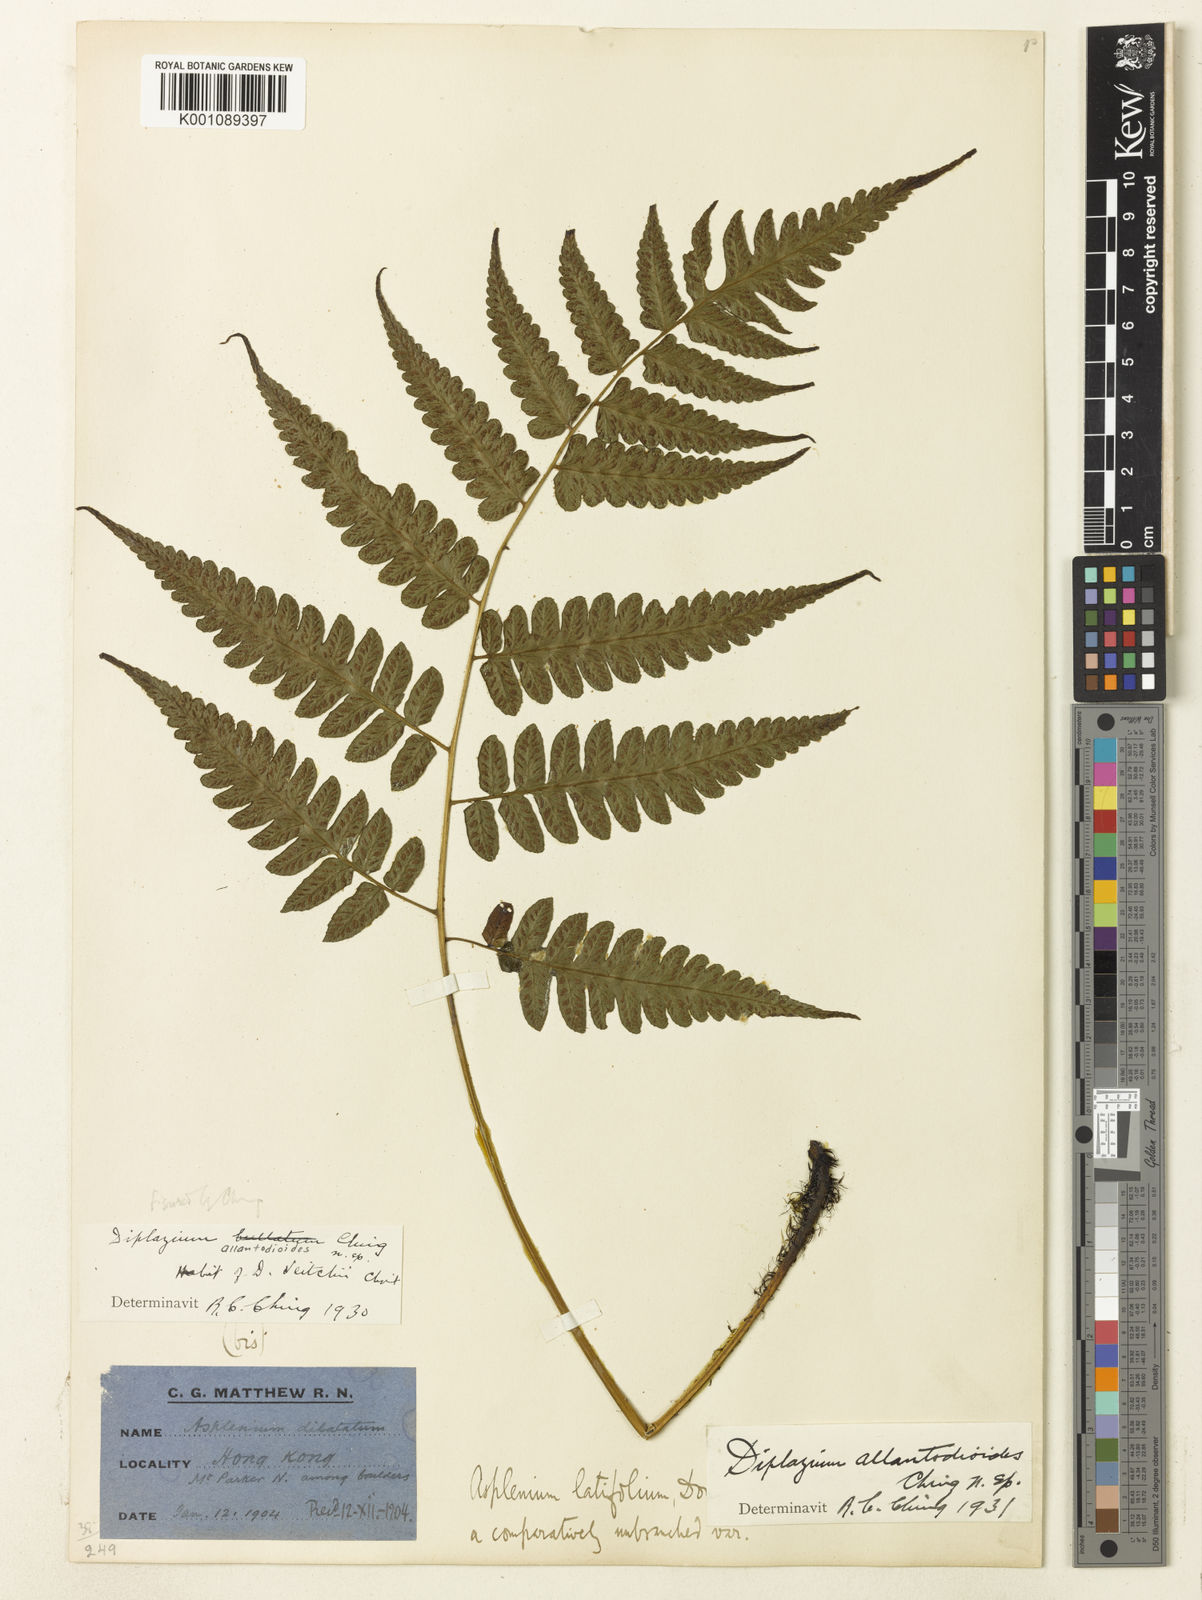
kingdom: Plantae
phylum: Tracheophyta
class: Polypodiopsida
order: Polypodiales
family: Athyriaceae
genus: Diplazium
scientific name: Diplazium virescens
